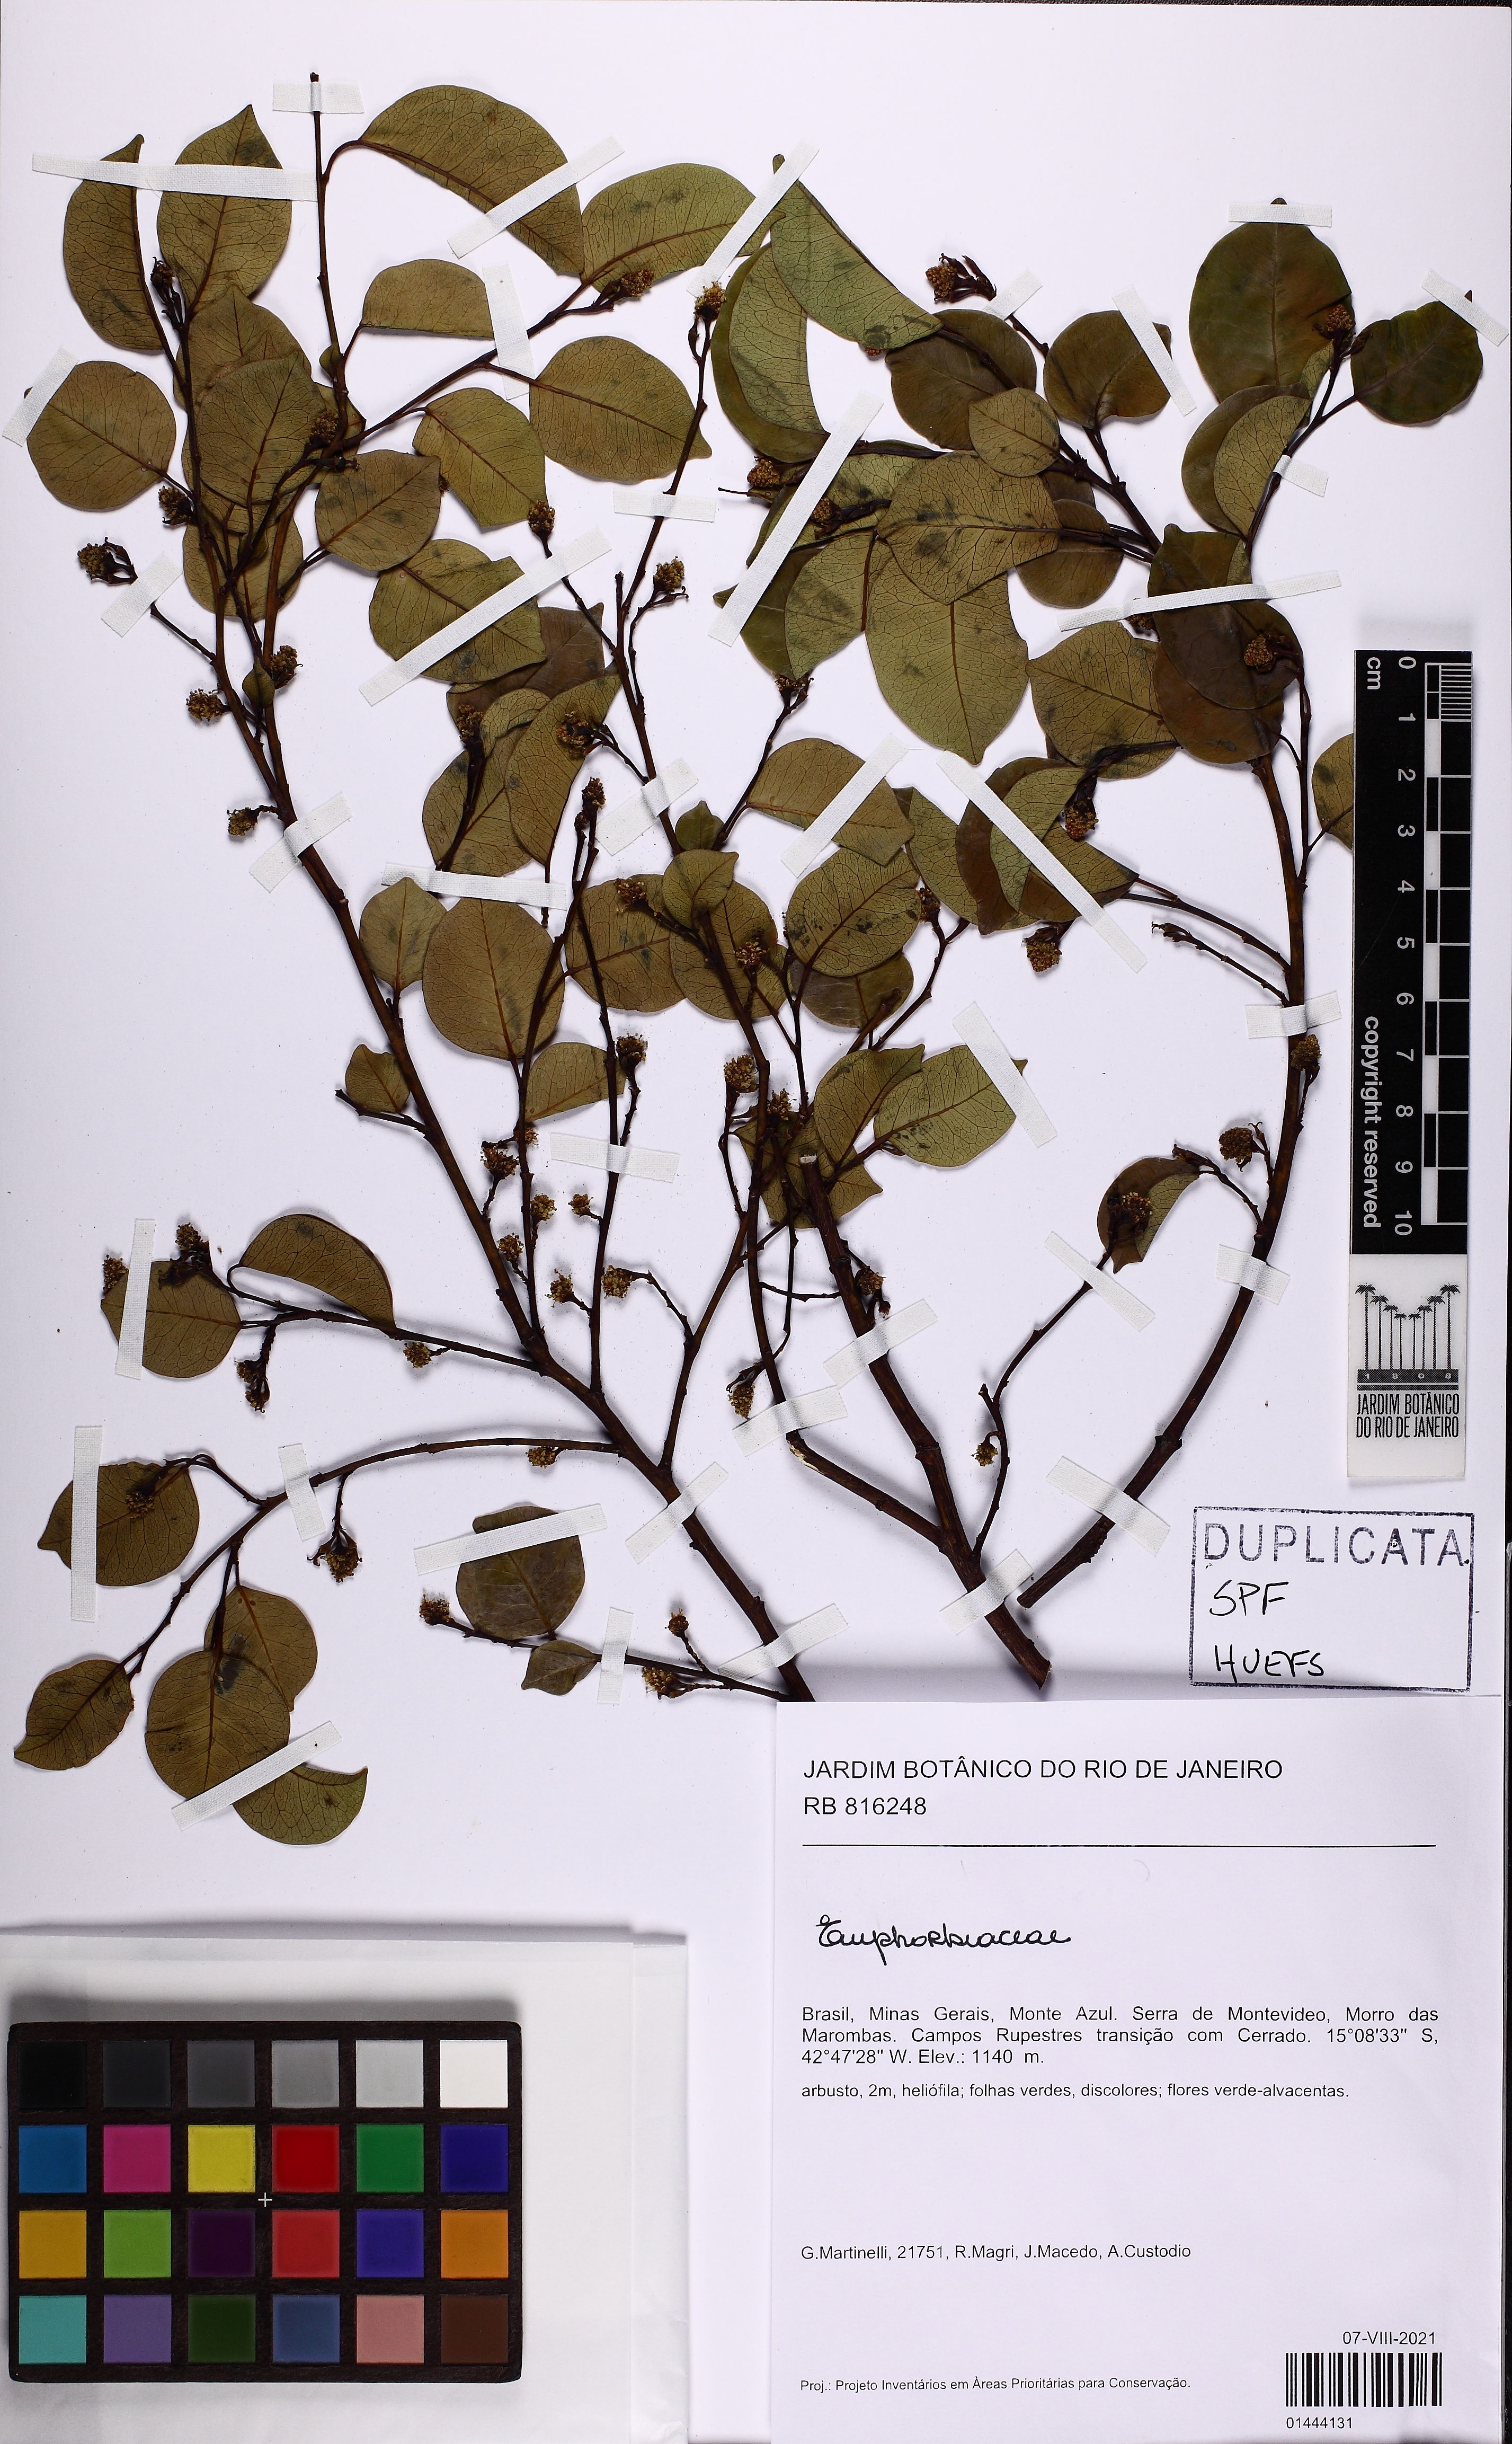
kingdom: Plantae
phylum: Tracheophyta
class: Magnoliopsida
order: Malpighiales
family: Euphorbiaceae
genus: Maprounea
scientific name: Maprounea guianensis
